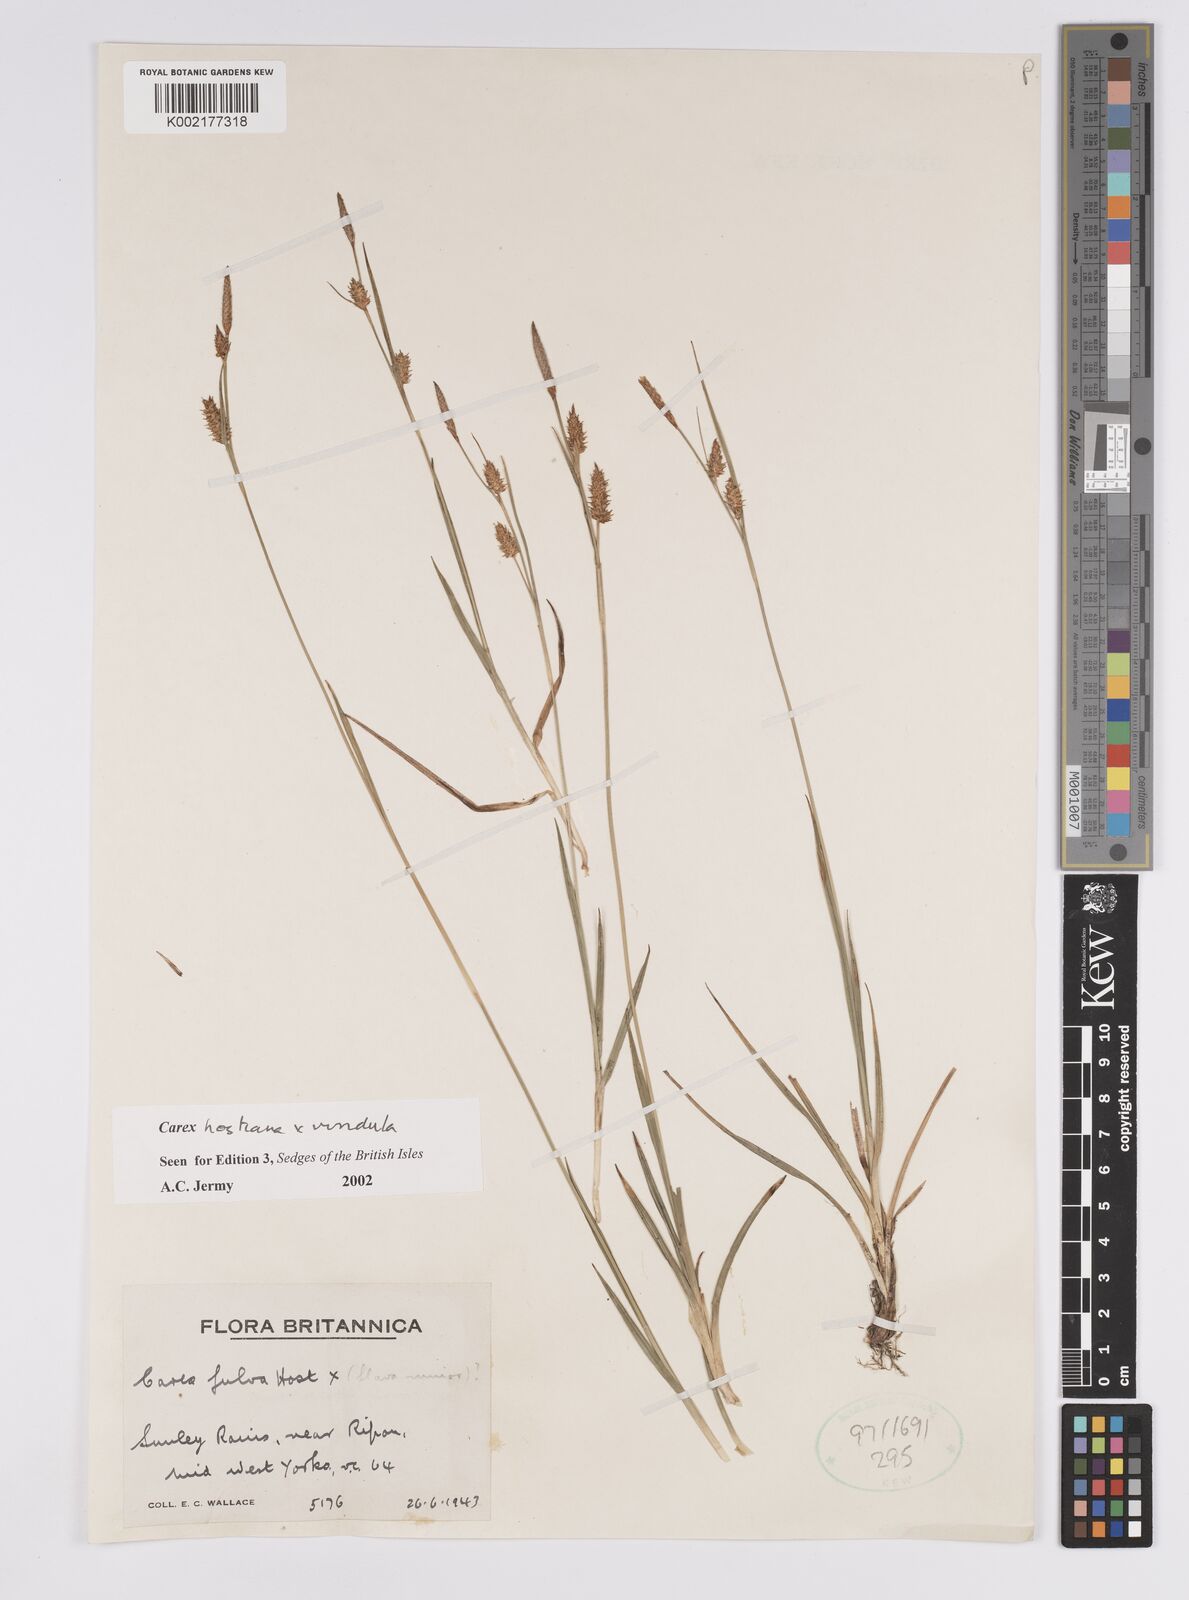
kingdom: Plantae
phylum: Tracheophyta
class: Liliopsida
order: Poales
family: Cyperaceae
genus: Carex
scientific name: Carex hostiana
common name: Tawny sedge
